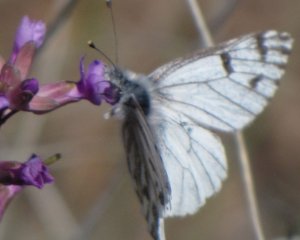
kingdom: Animalia
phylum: Arthropoda
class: Insecta
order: Lepidoptera
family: Pieridae
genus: Pontia
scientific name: Pontia sisymbrii
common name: Spring White
